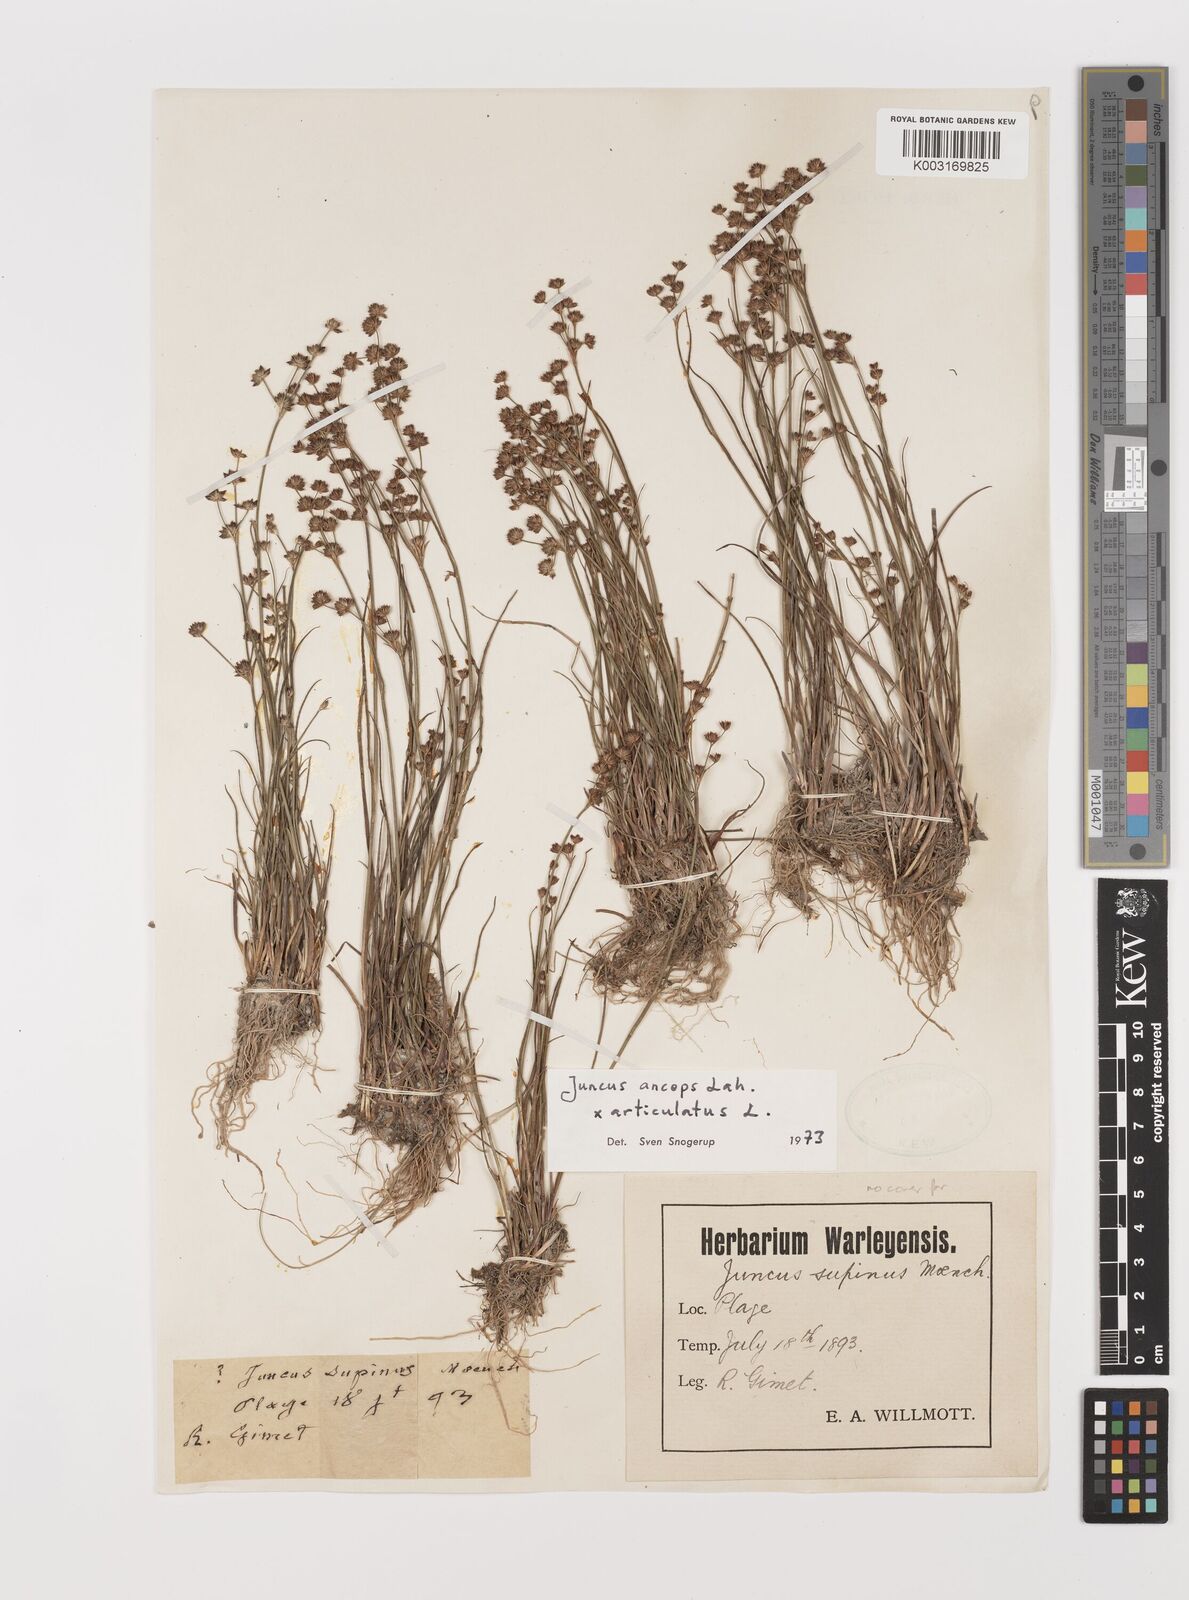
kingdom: Plantae
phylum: Tracheophyta
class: Liliopsida
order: Poales
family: Juncaceae
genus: Juncus
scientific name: Juncus anceps
